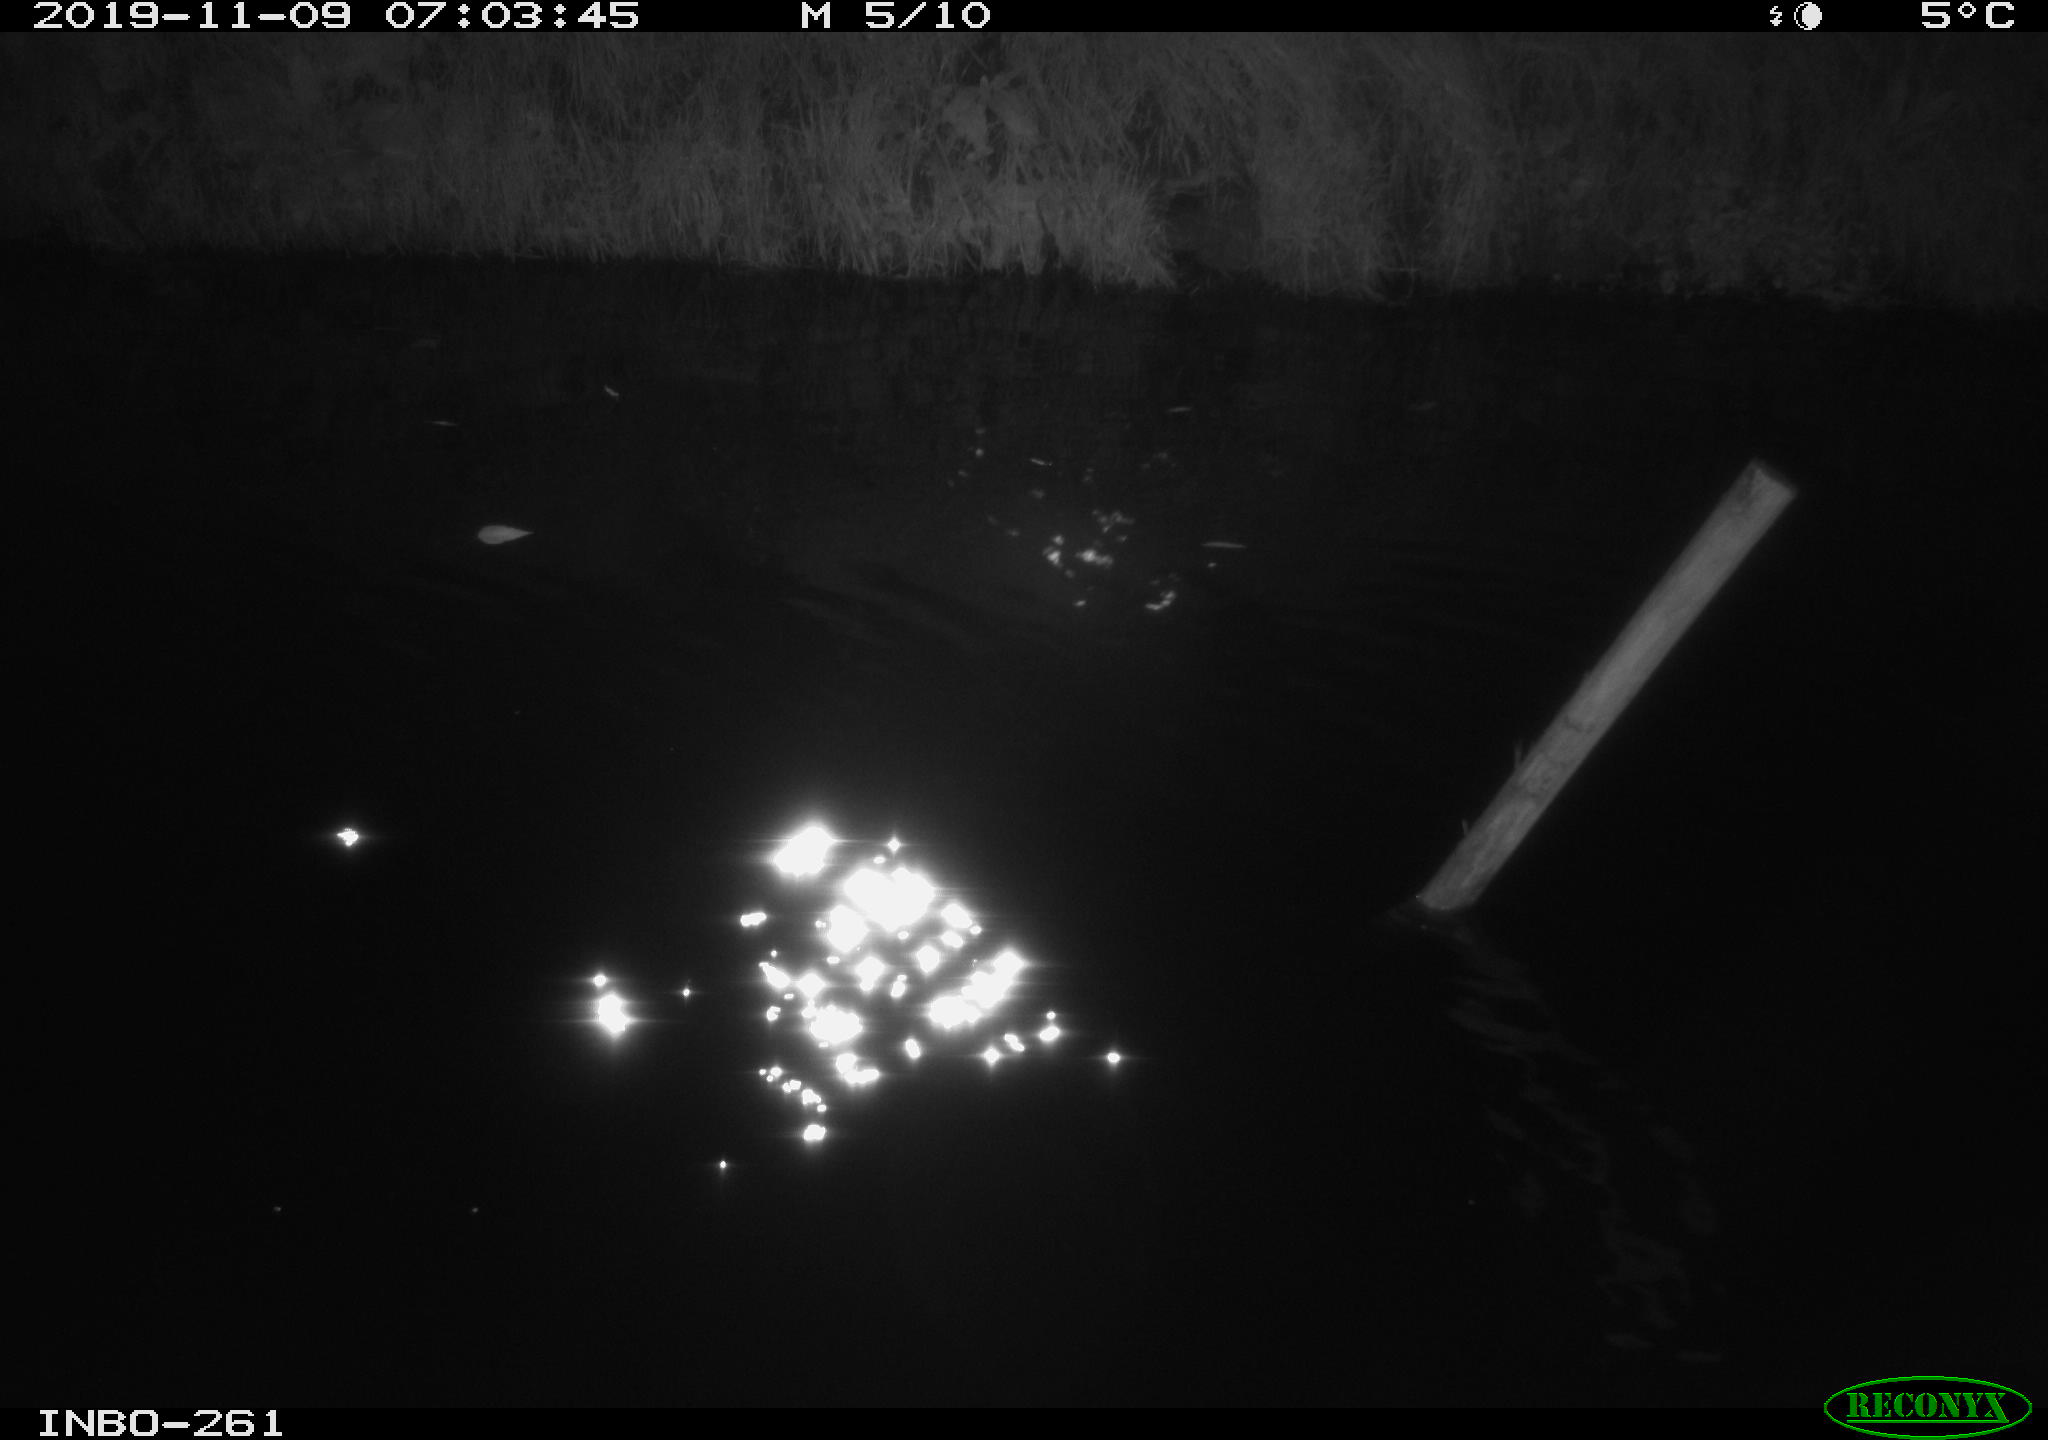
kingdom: Animalia
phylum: Chordata
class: Aves
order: Anseriformes
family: Anatidae
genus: Anas
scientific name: Anas platyrhynchos
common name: Mallard
